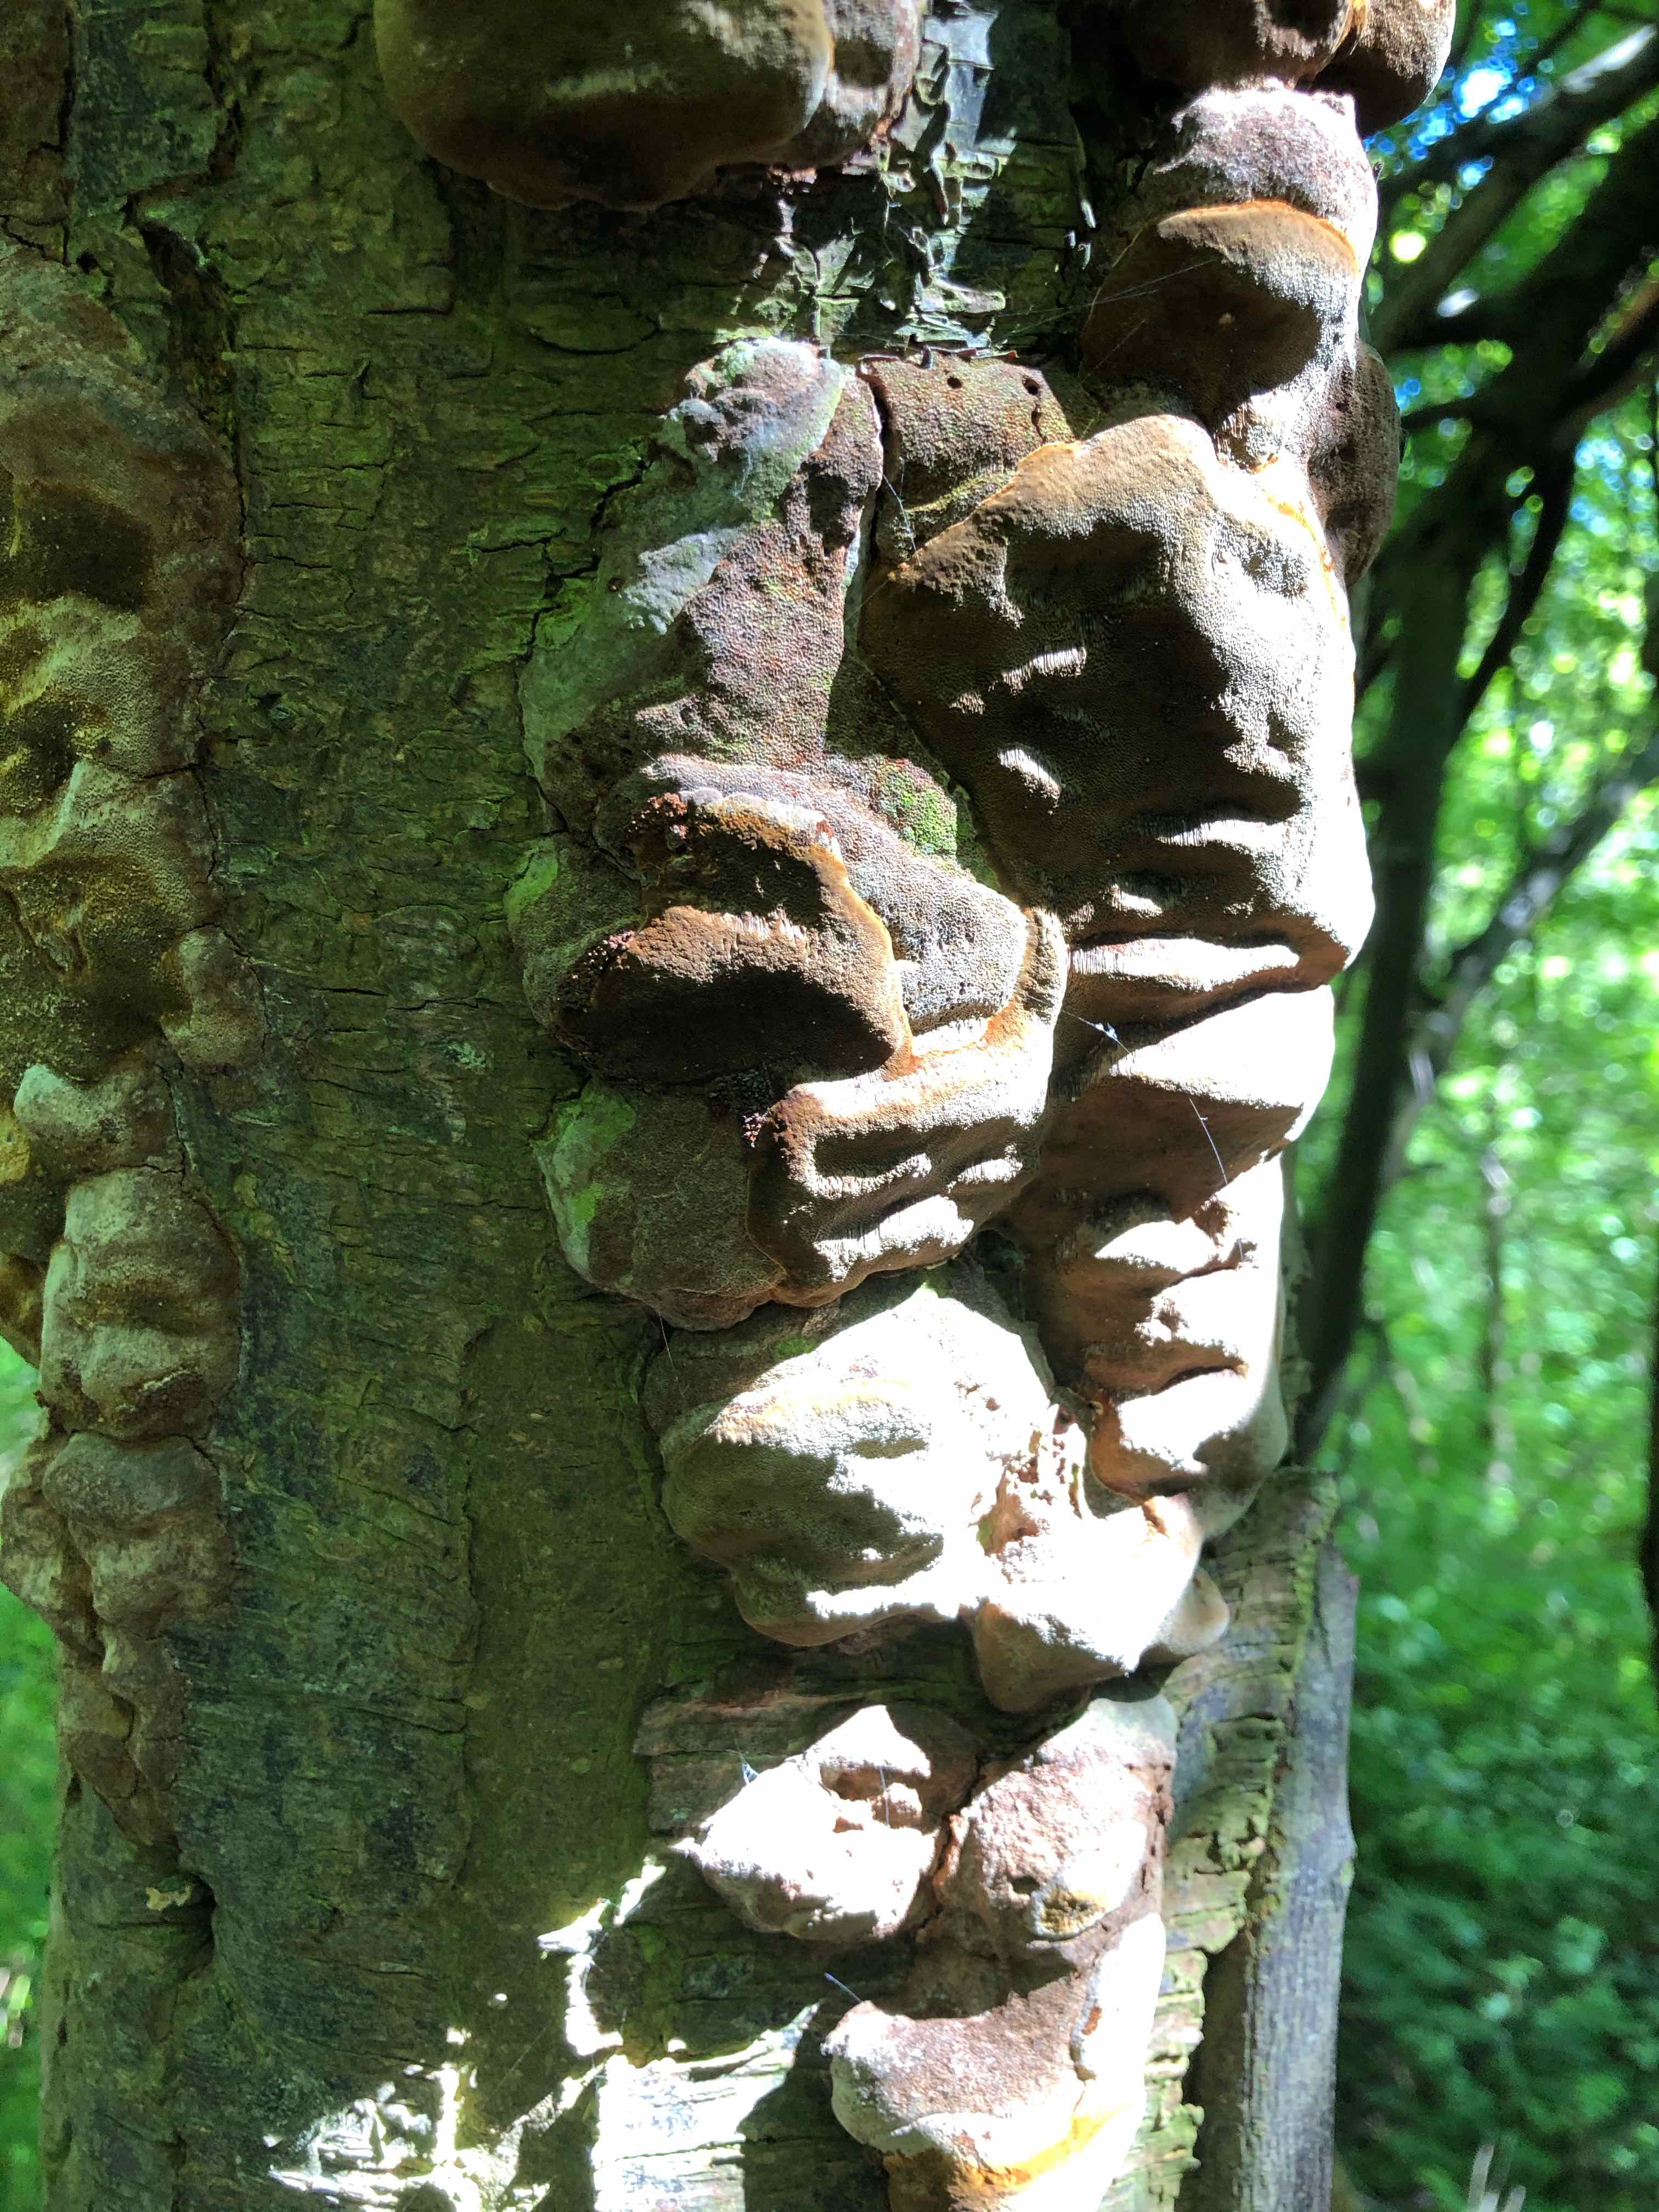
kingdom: Fungi
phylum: Basidiomycota
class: Agaricomycetes
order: Hymenochaetales
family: Hymenochaetaceae
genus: Phellinus
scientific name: Phellinus pomaceus
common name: blomme-ildporesvamp
